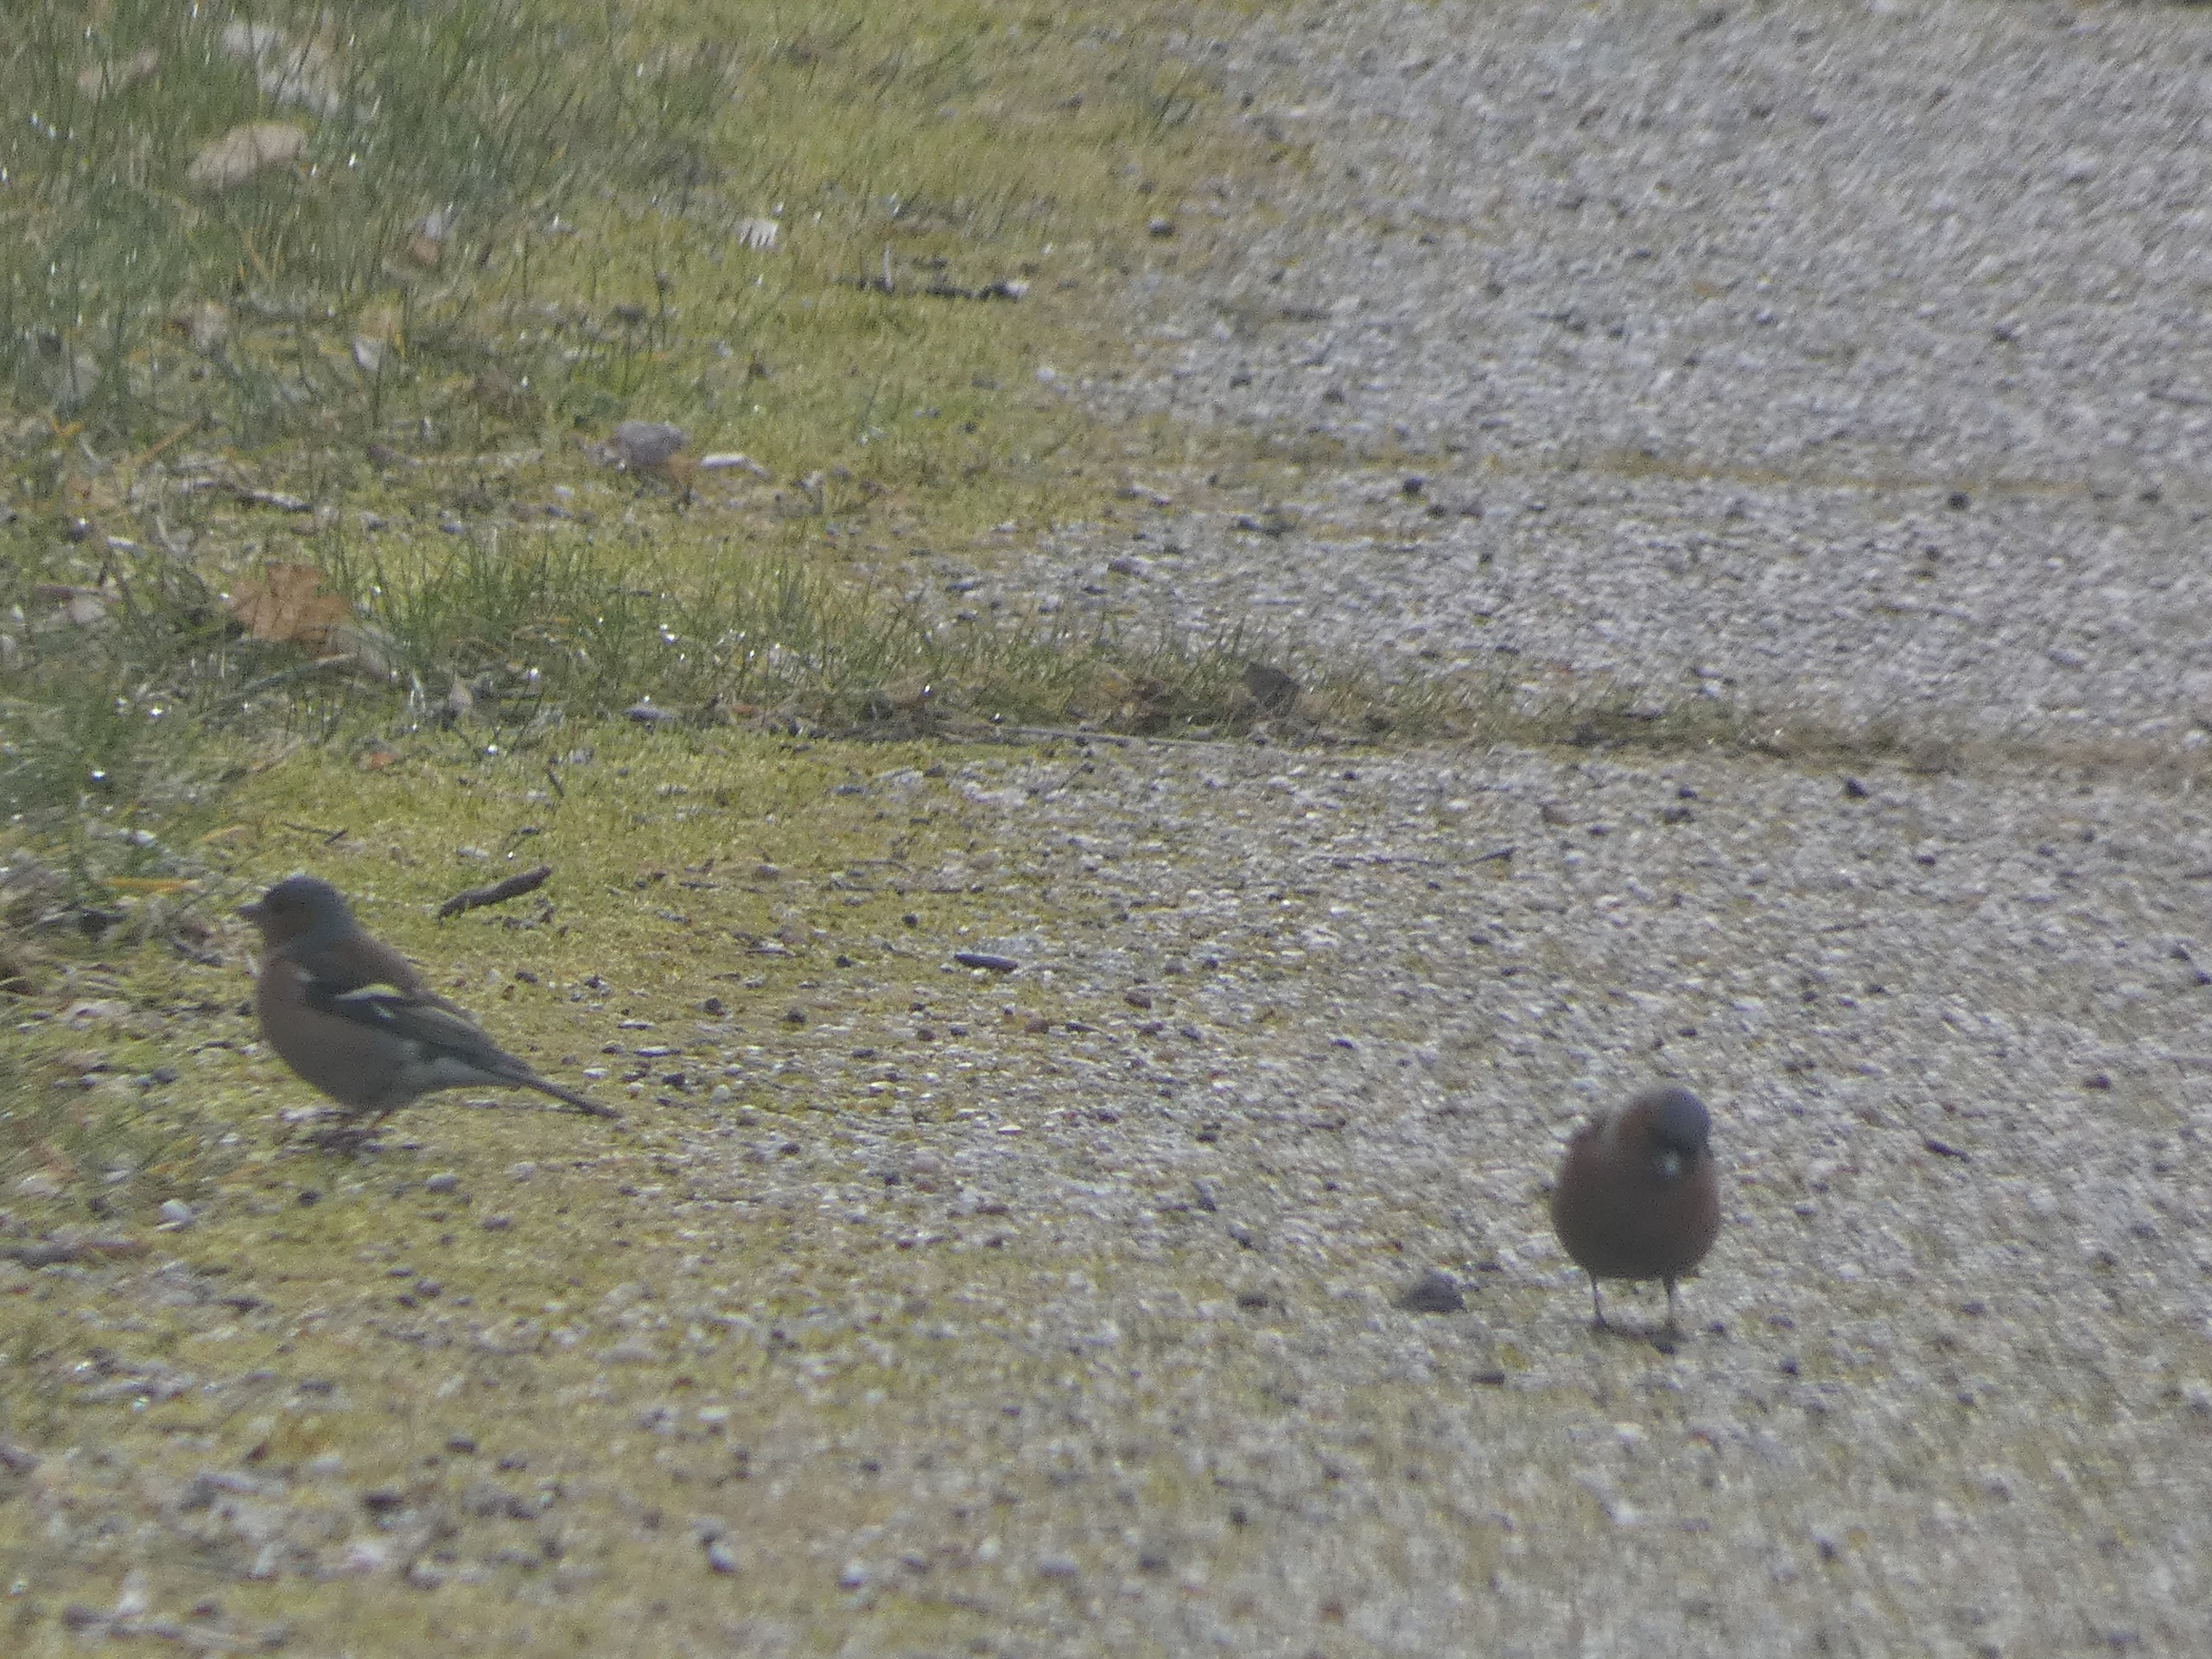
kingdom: Animalia
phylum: Chordata
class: Aves
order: Passeriformes
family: Fringillidae
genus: Fringilla
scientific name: Fringilla coelebs
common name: Bogfinke
